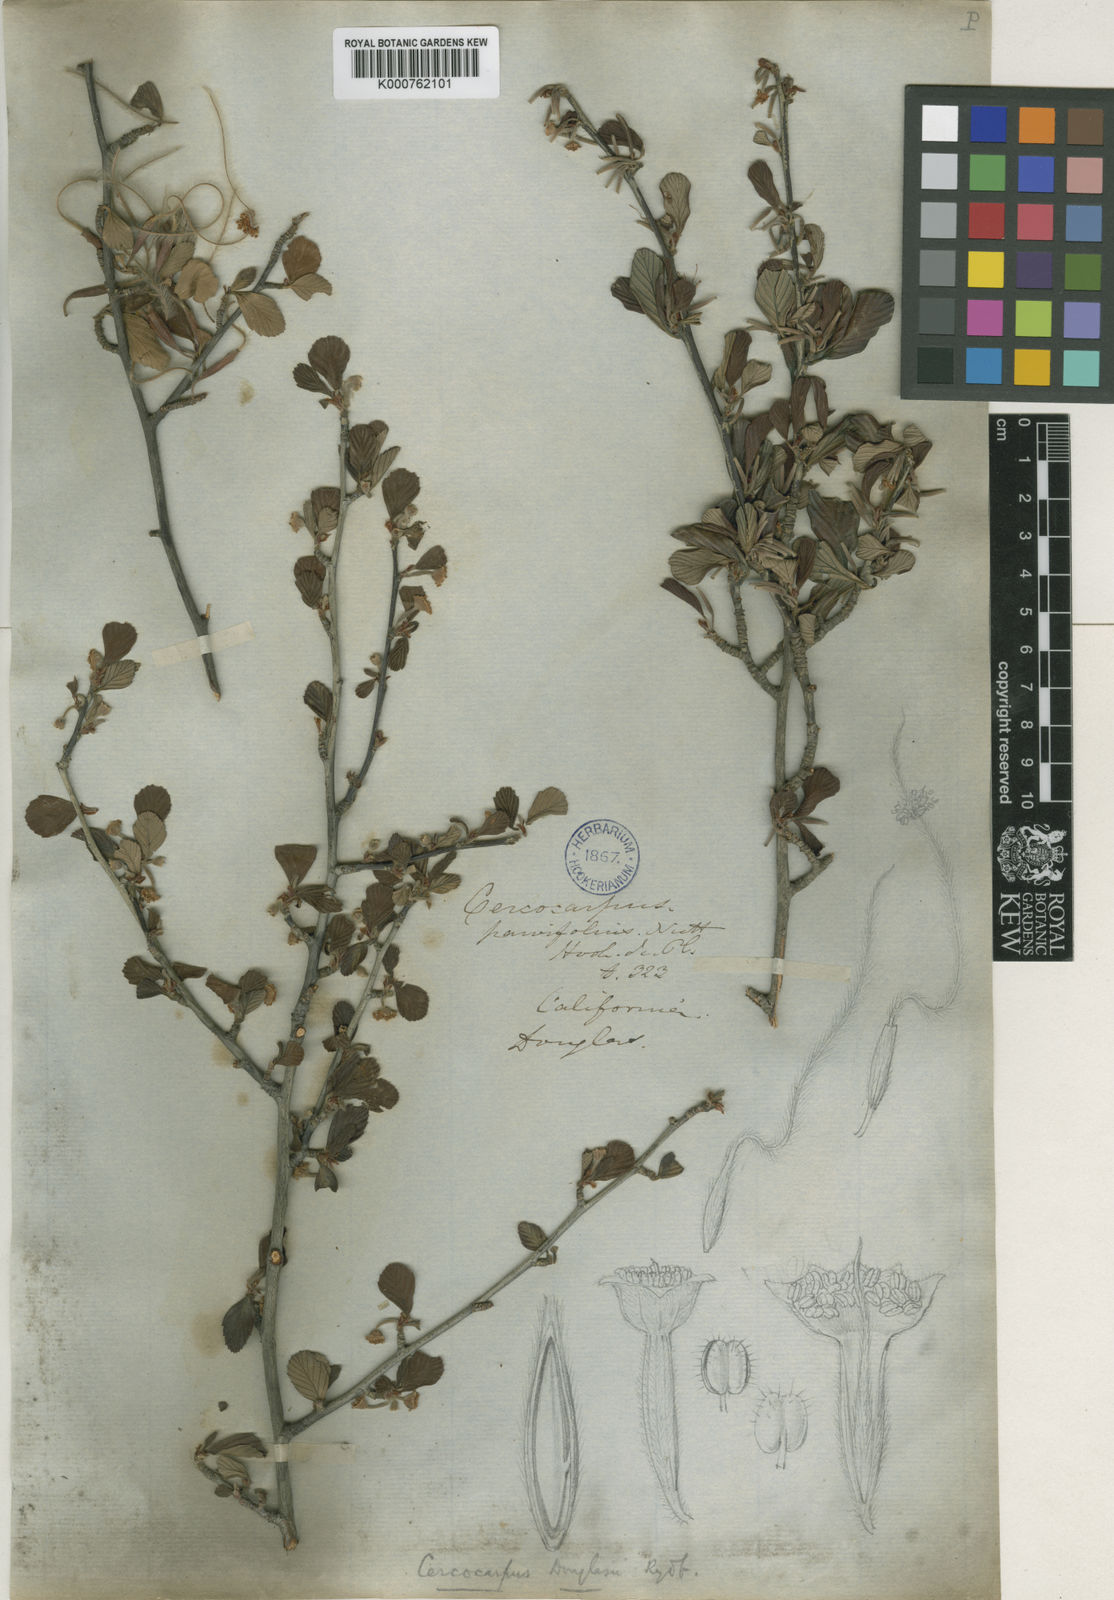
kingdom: Plantae
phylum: Tracheophyta
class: Magnoliopsida
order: Rosales
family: Rosaceae
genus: Cercocarpus
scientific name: Cercocarpus betuloides
